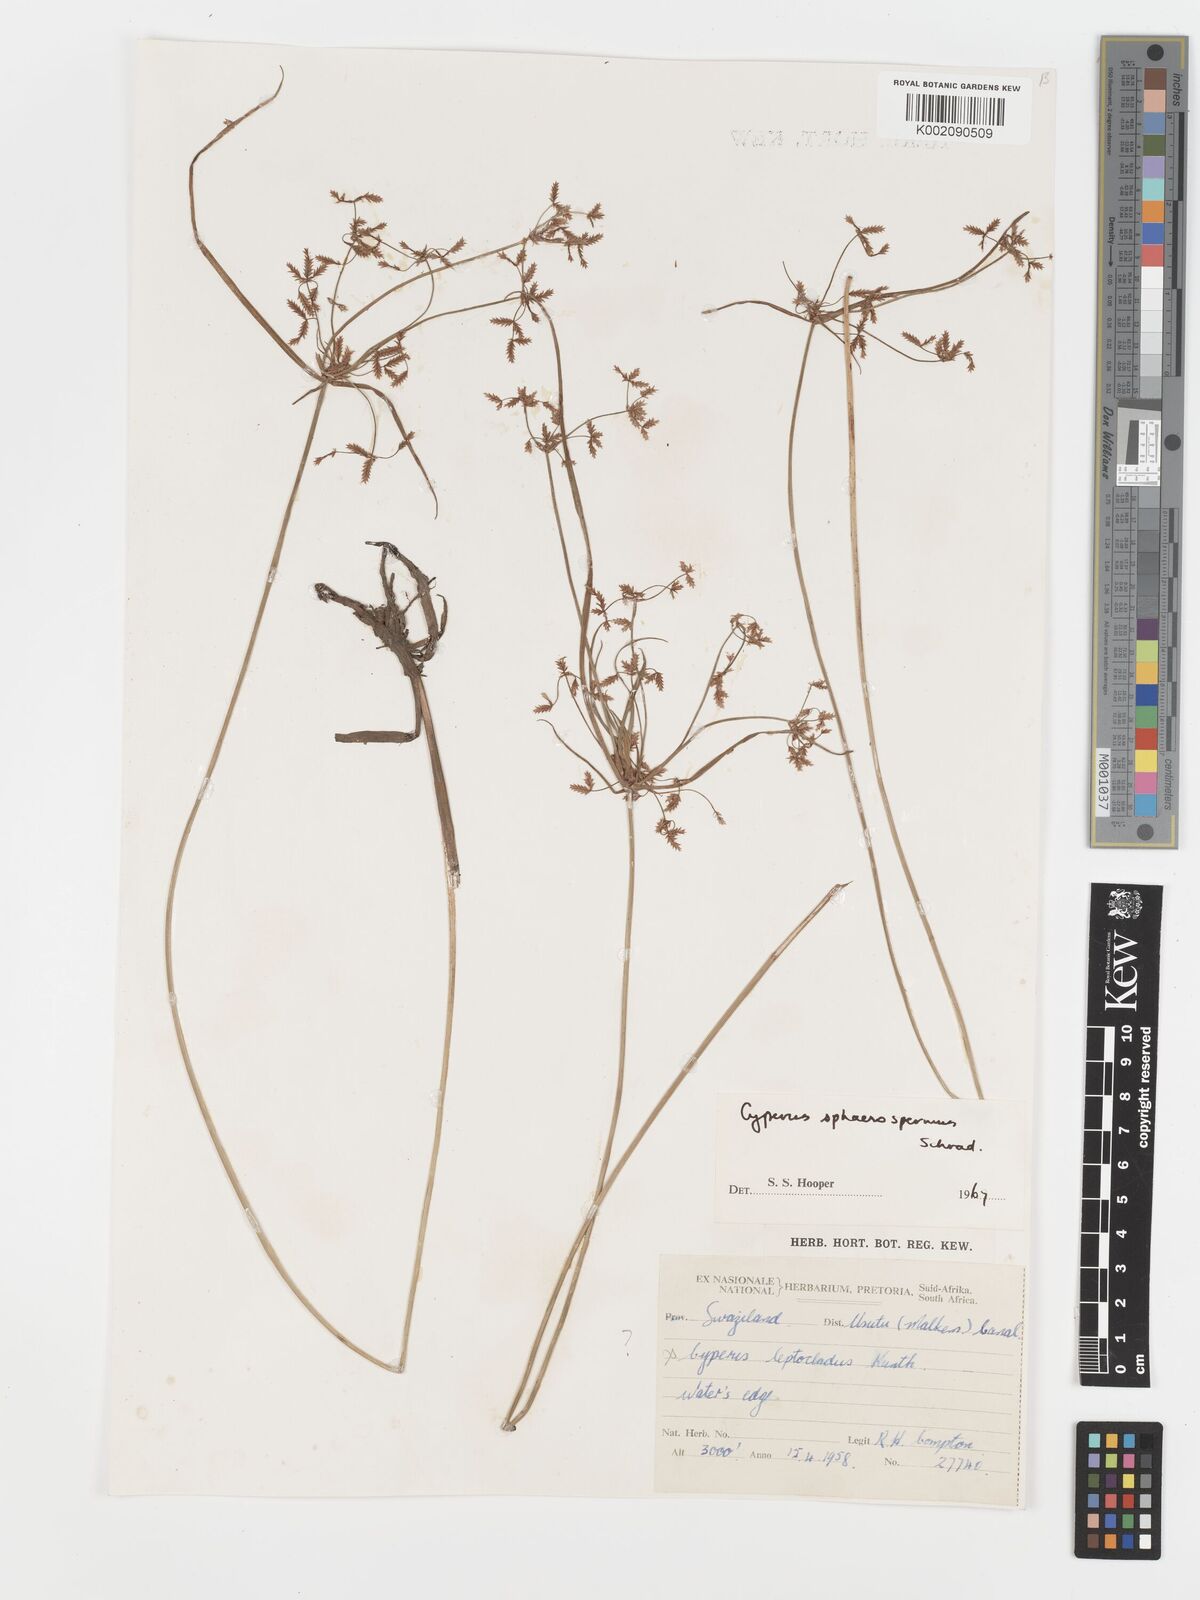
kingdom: Plantae
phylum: Tracheophyta
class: Liliopsida
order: Poales
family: Cyperaceae
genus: Cyperus
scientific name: Cyperus sphaerospermus
